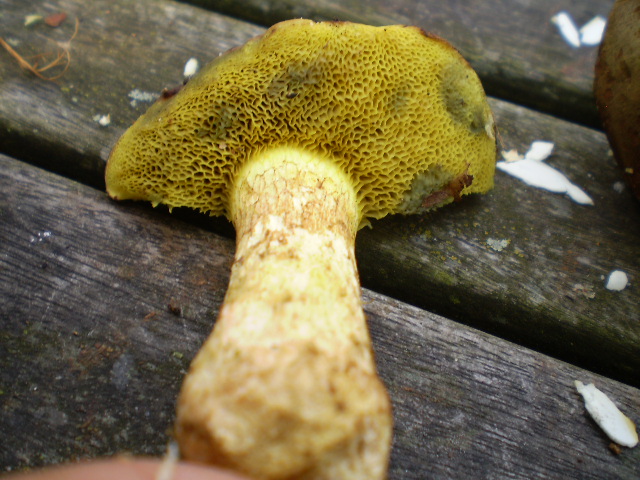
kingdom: Fungi
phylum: Basidiomycota
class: Agaricomycetes
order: Boletales
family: Boletaceae
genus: Xerocomus
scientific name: Xerocomus subtomentosus
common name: filtet rørhat
